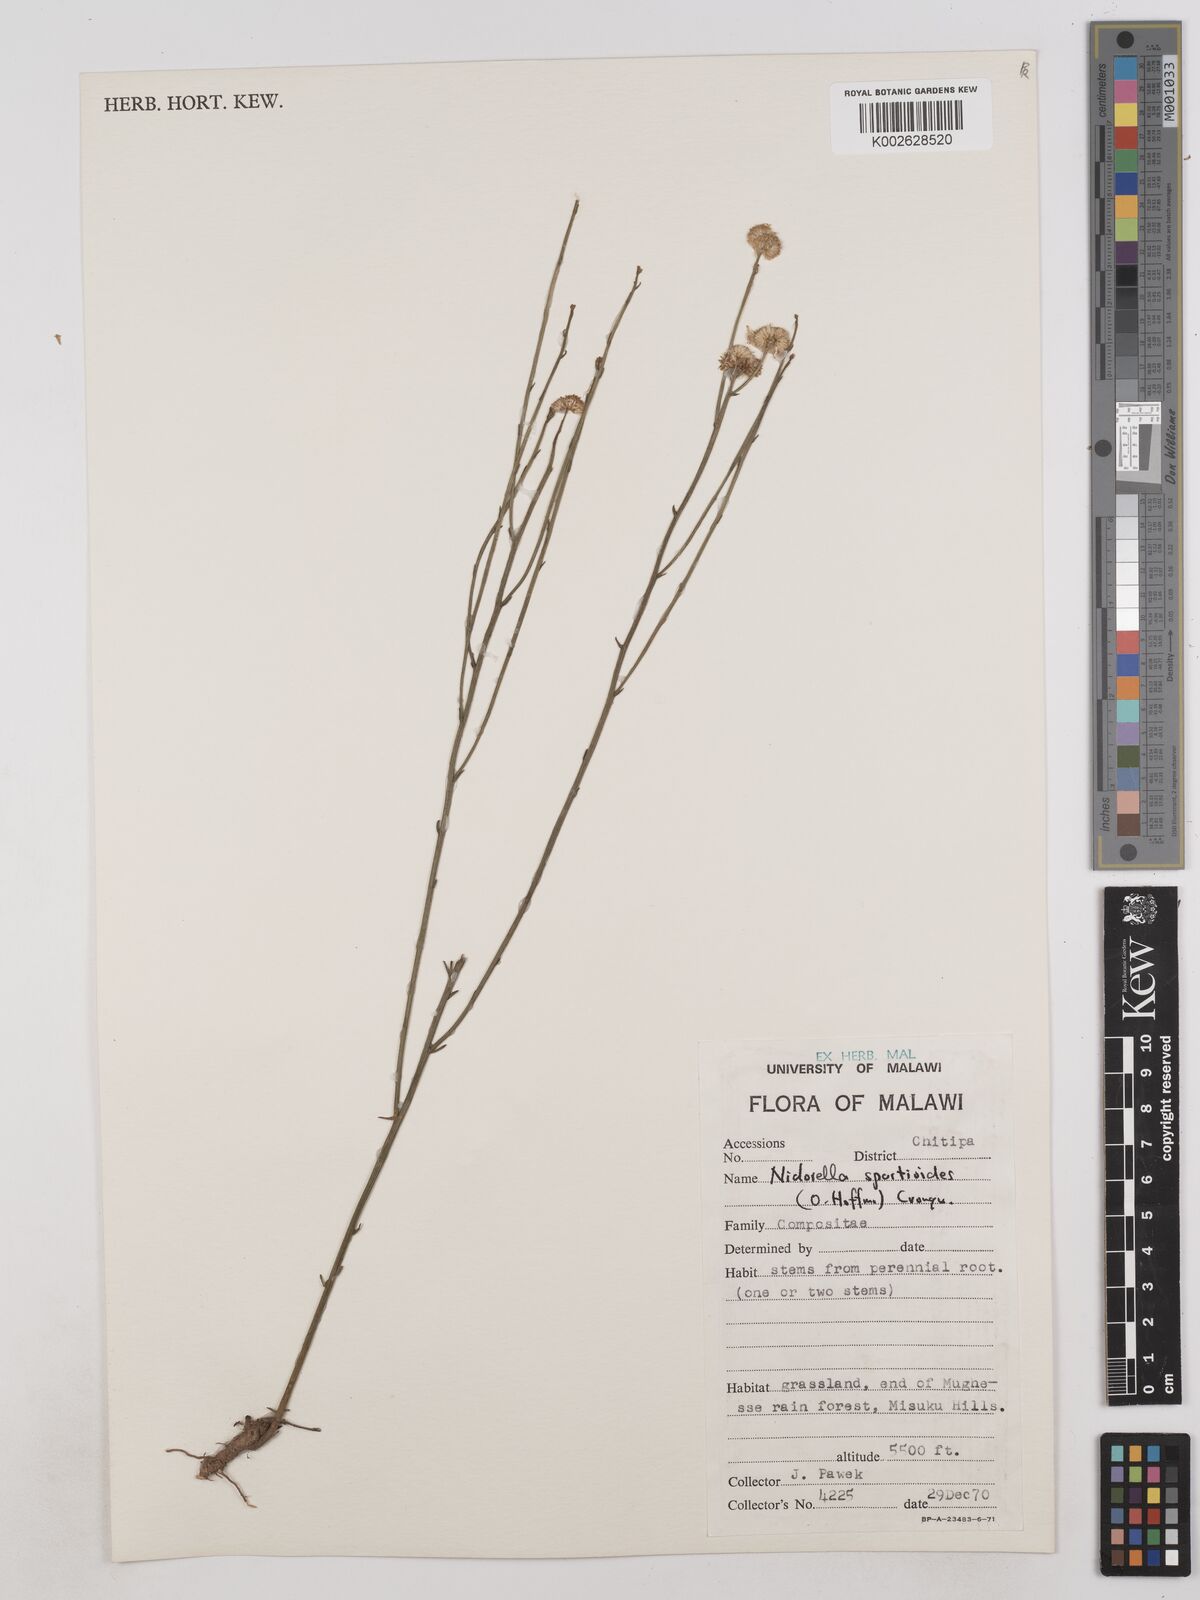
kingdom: Plantae
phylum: Tracheophyta
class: Magnoliopsida
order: Asterales
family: Asteraceae
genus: Nidorella
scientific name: Nidorella spartioides
